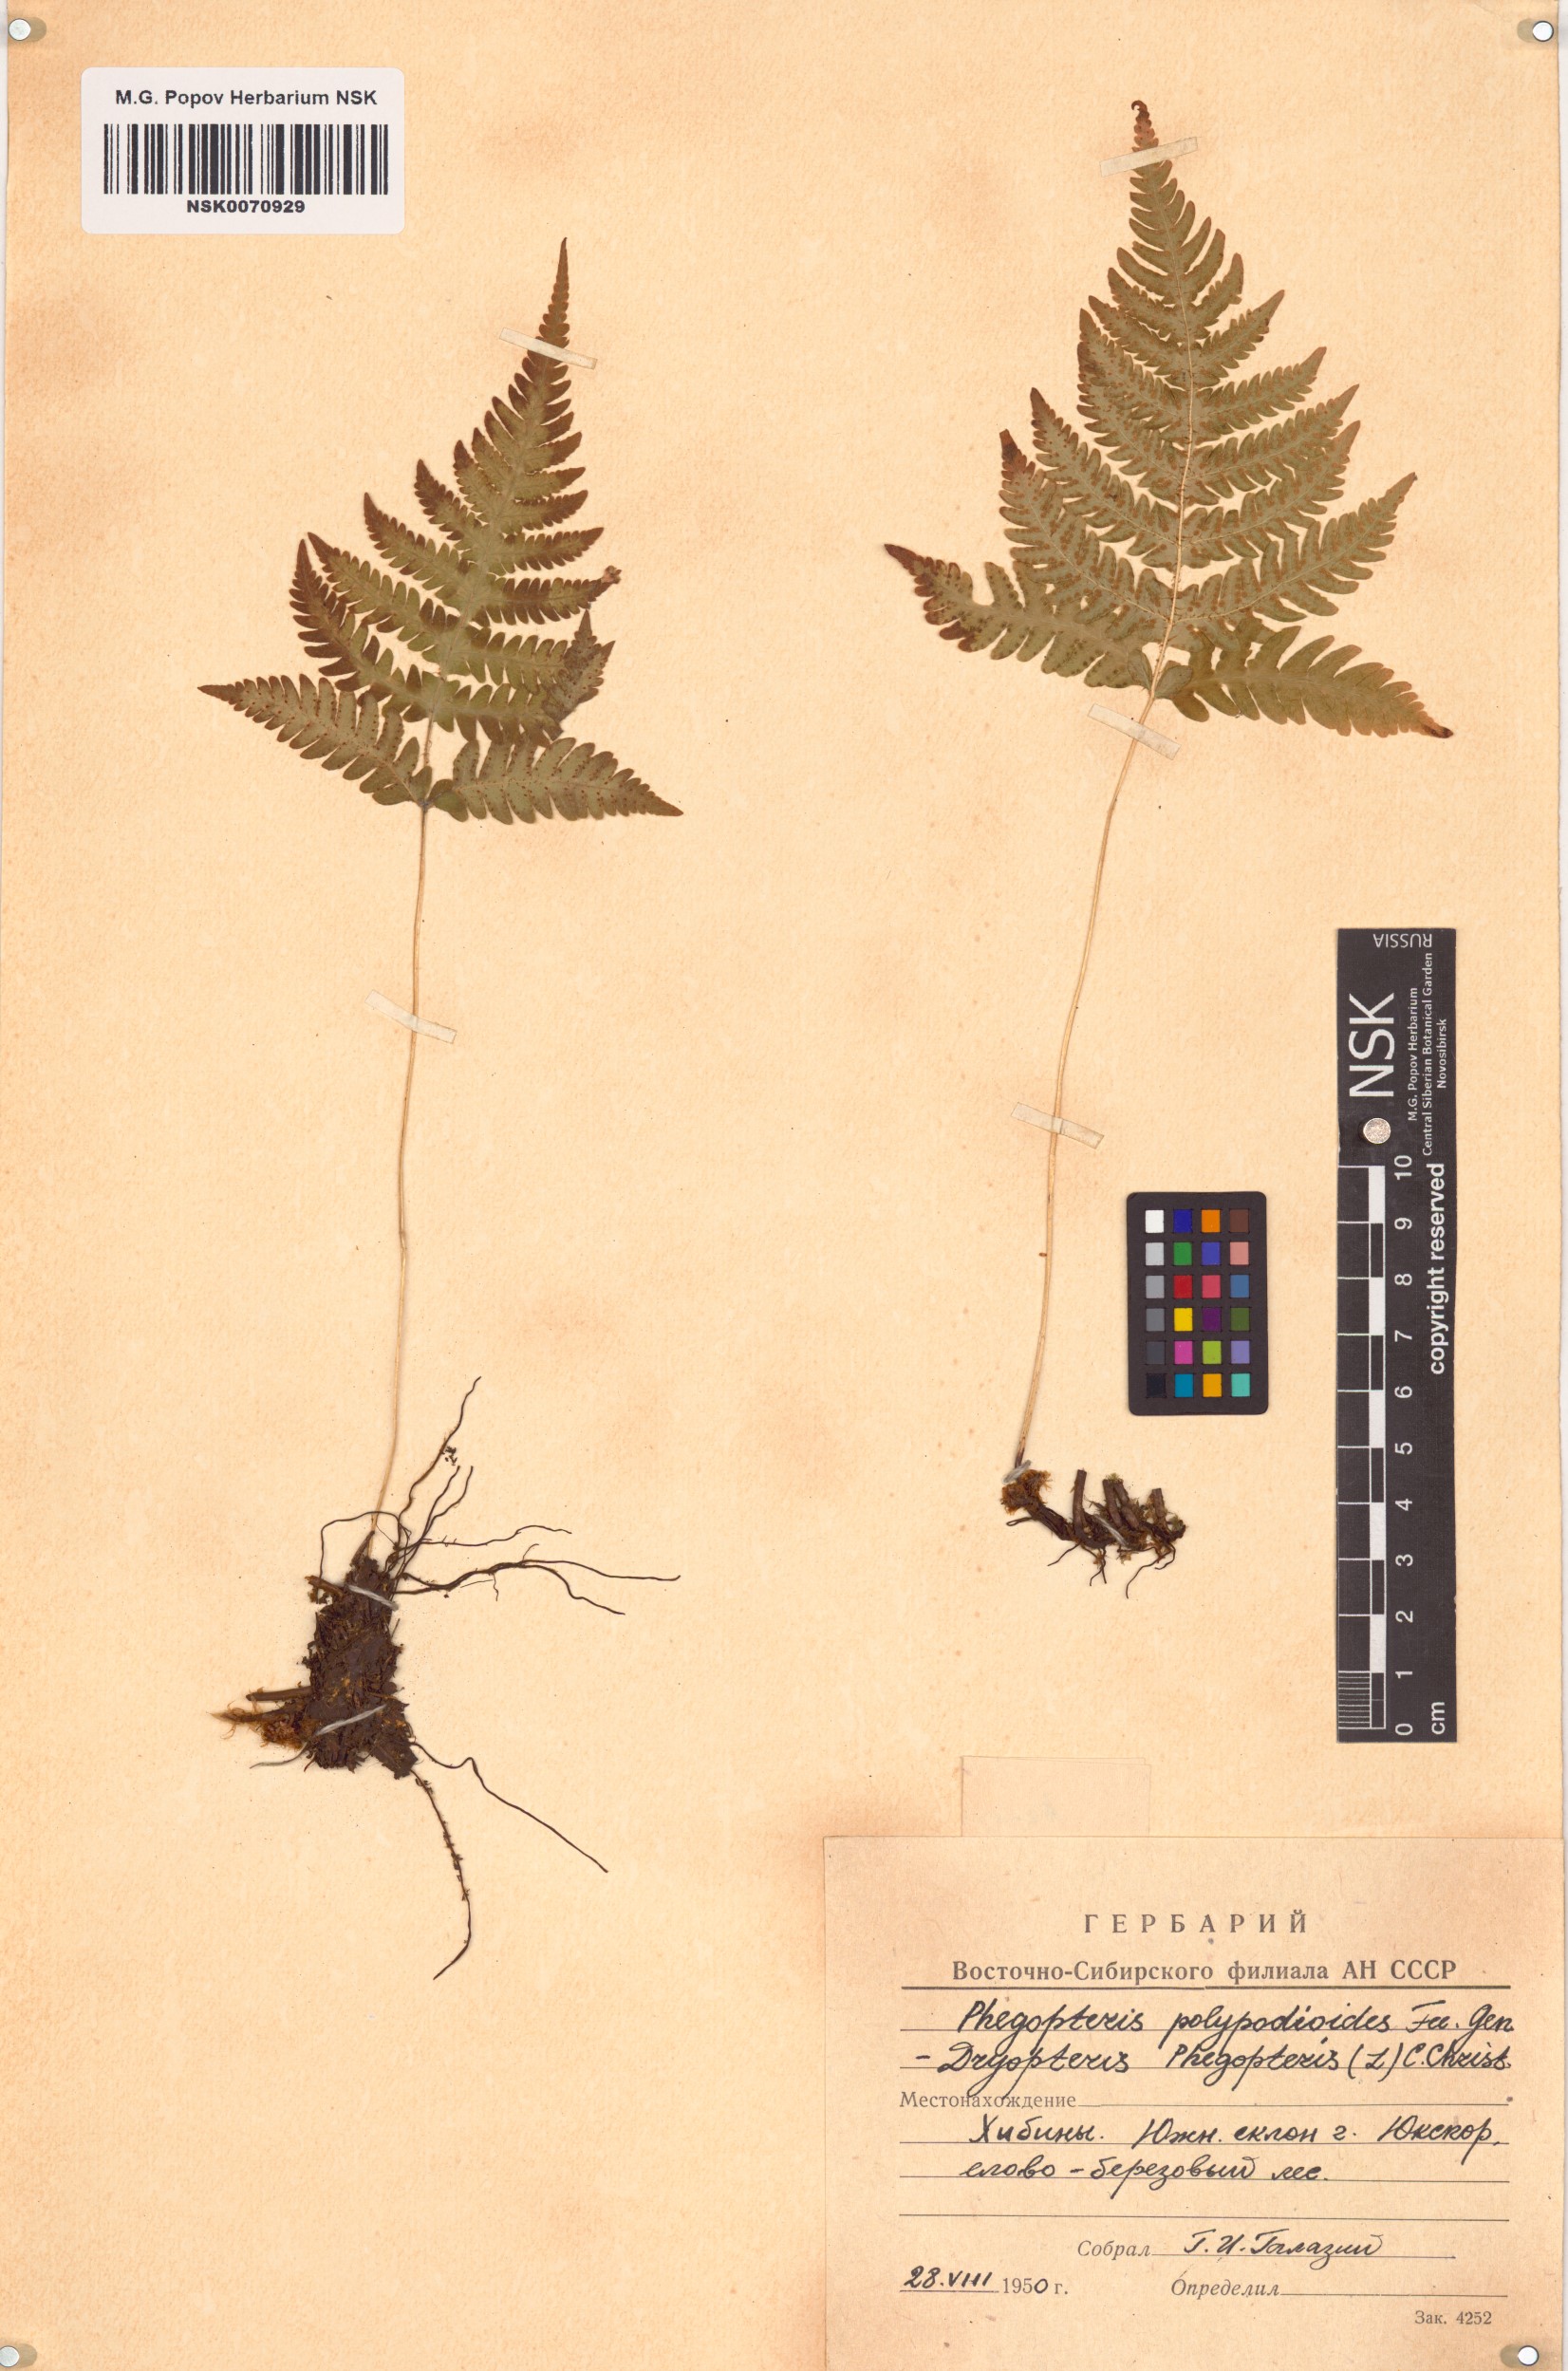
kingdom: Plantae
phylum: Tracheophyta
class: Polypodiopsida
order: Polypodiales
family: Thelypteridaceae
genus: Phegopteris
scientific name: Phegopteris connectilis
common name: Beech fern
